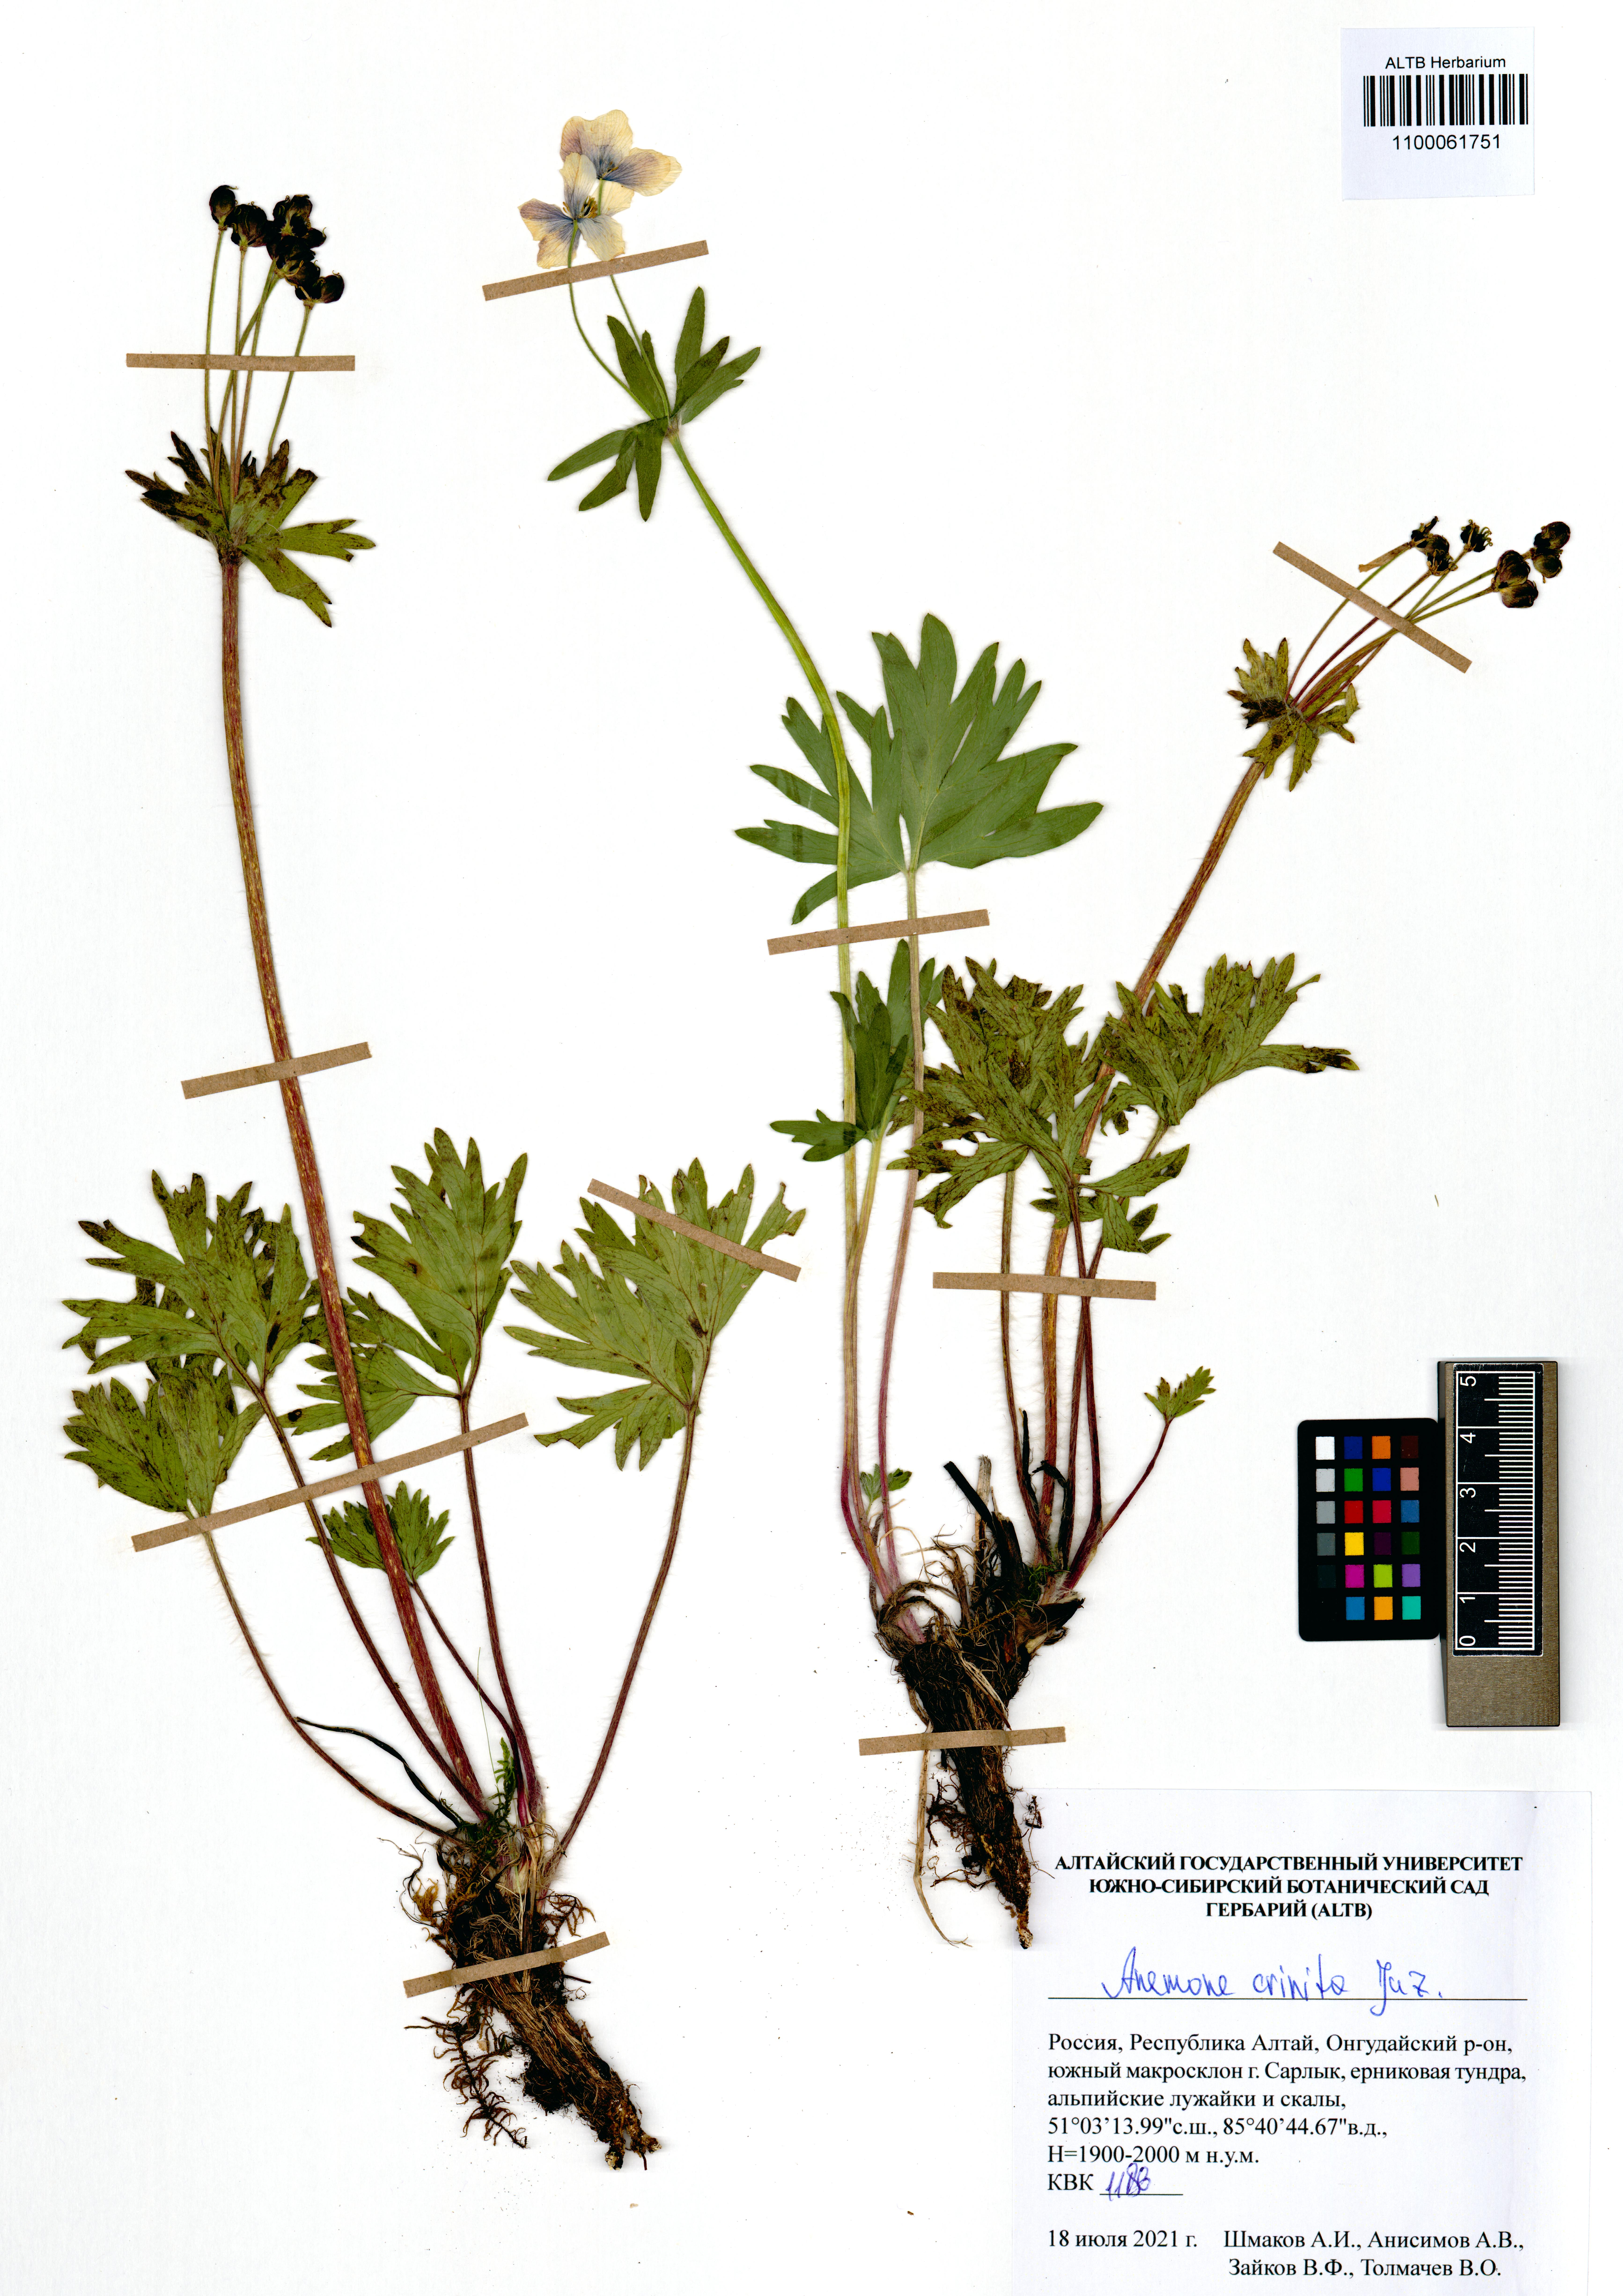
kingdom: Plantae
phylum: Tracheophyta
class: Magnoliopsida
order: Ranunculales
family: Ranunculaceae
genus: Anemonastrum
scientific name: Anemonastrum narcissiflorum
